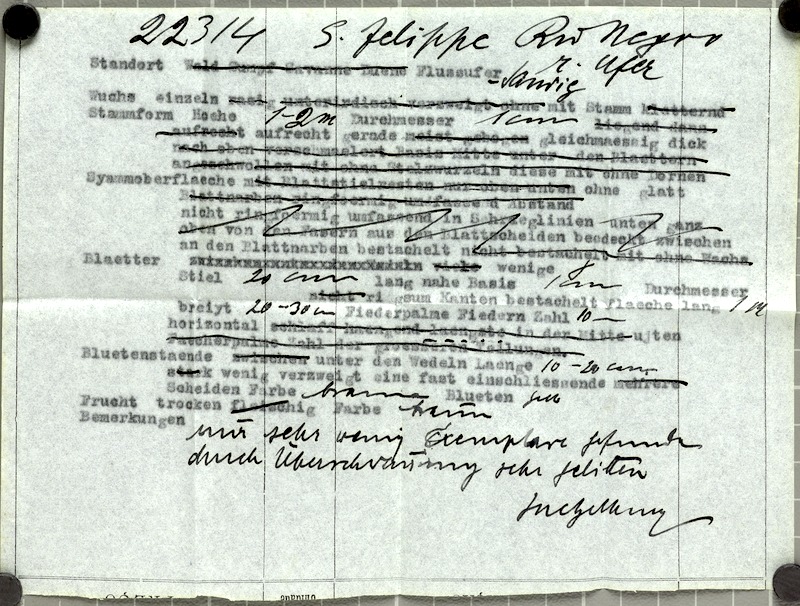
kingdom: Plantae
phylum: Tracheophyta
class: Liliopsida
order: Arecales
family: Arecaceae
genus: Bactris
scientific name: Bactris simplicifrons
